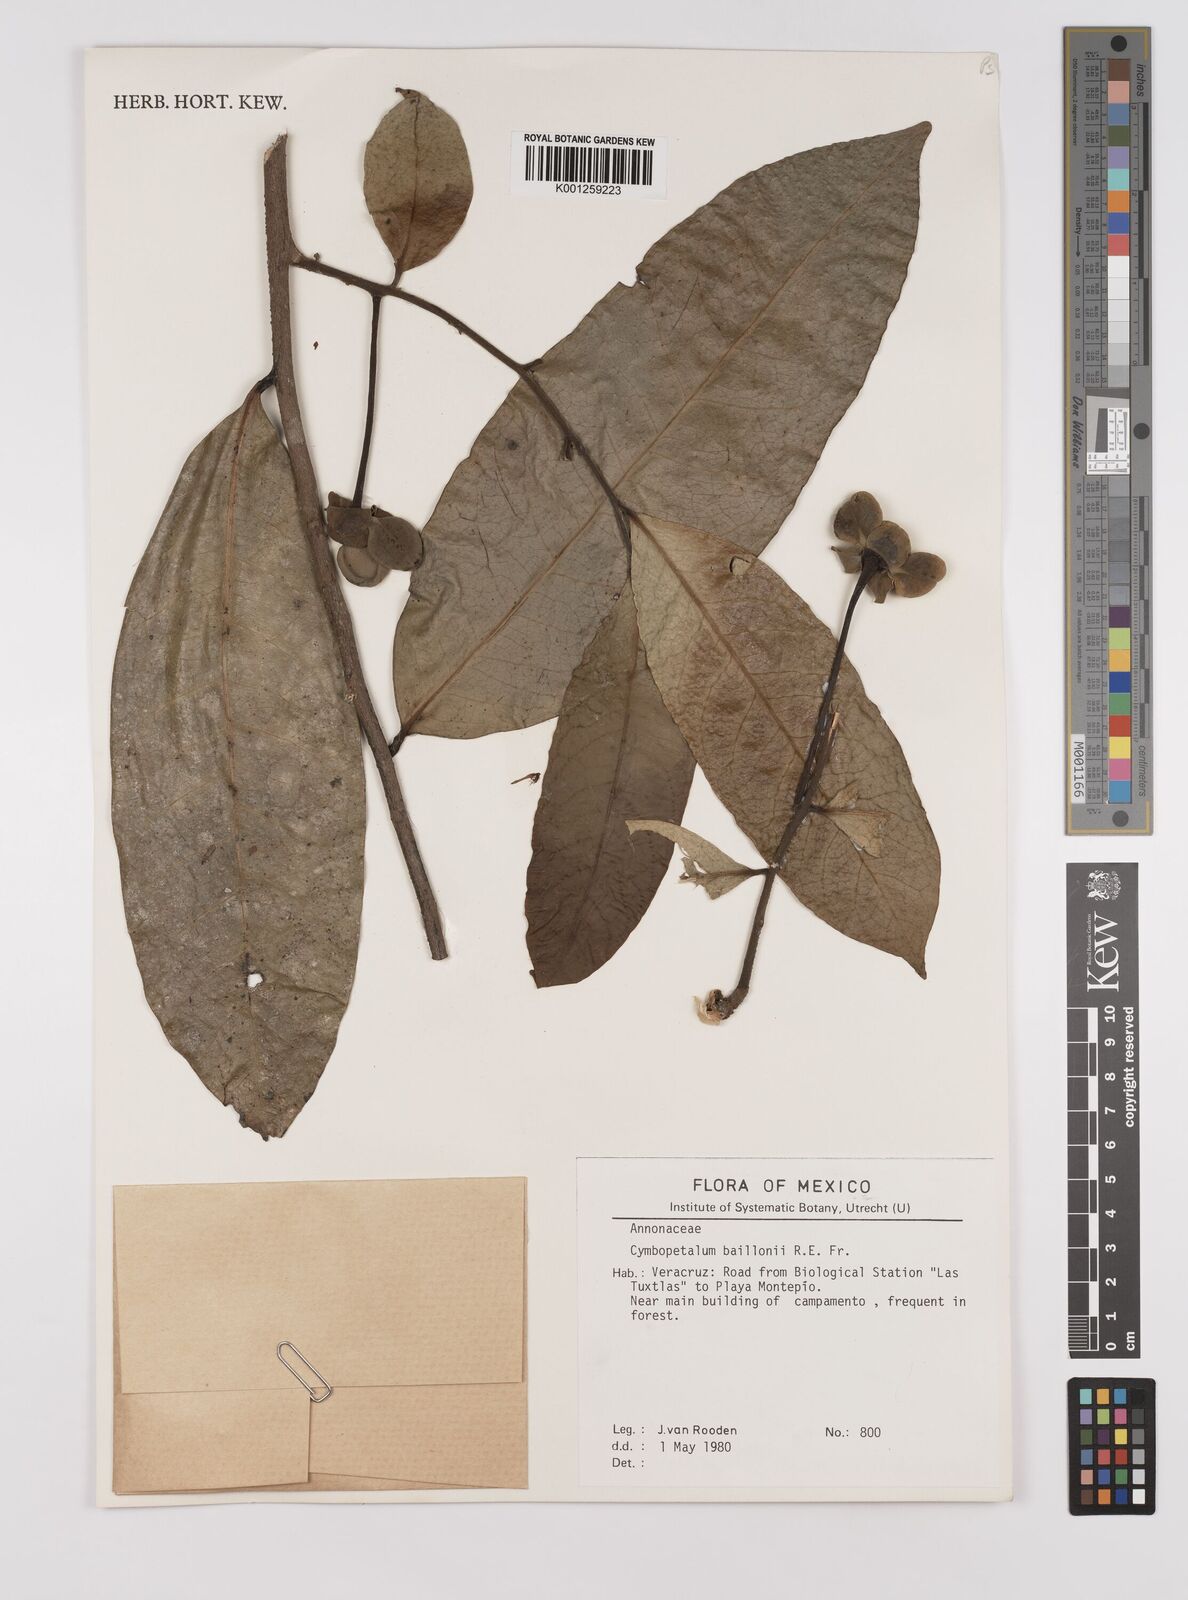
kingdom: Plantae
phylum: Tracheophyta
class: Magnoliopsida
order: Magnoliales
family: Annonaceae
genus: Cymbopetalum
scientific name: Cymbopetalum baillonii
